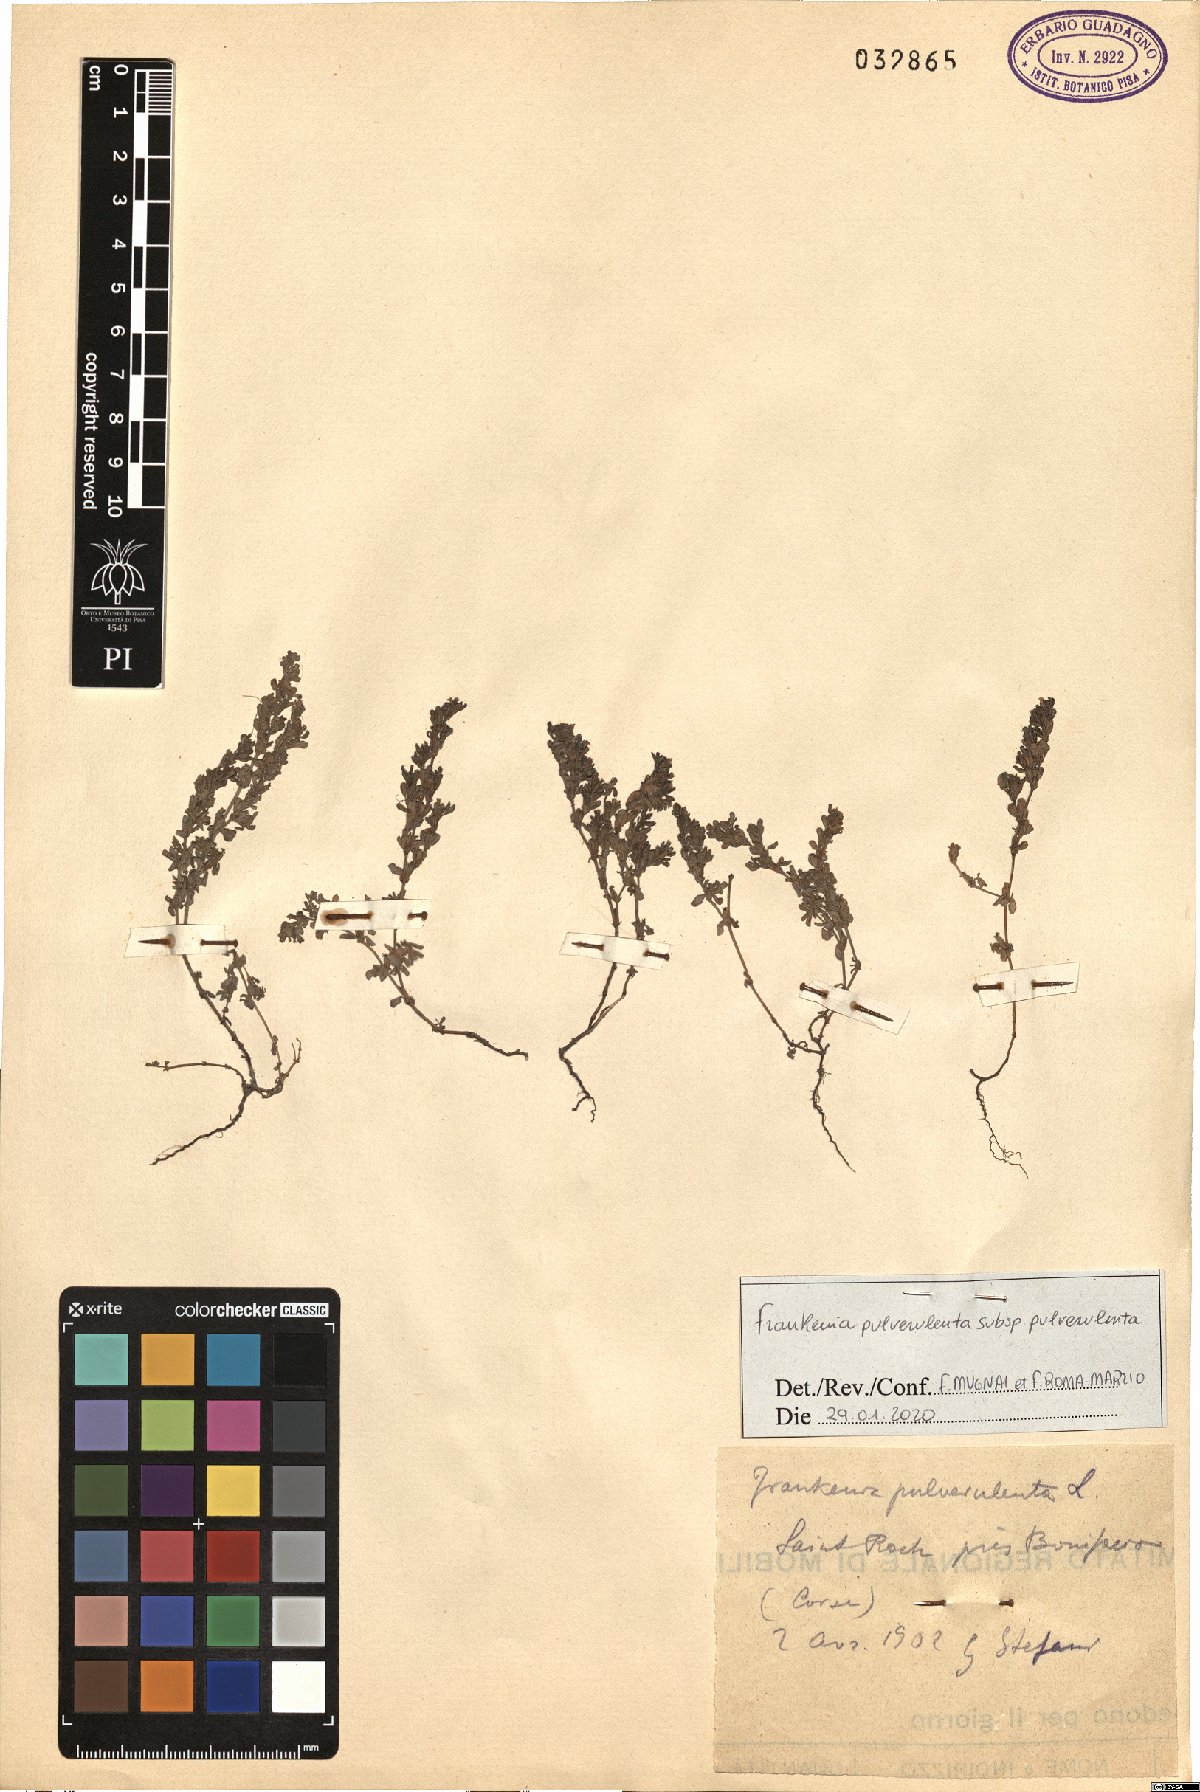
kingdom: Plantae
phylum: Tracheophyta
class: Magnoliopsida
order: Caryophyllales
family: Frankeniaceae
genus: Frankenia
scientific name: Frankenia pulverulenta
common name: European seaheath
